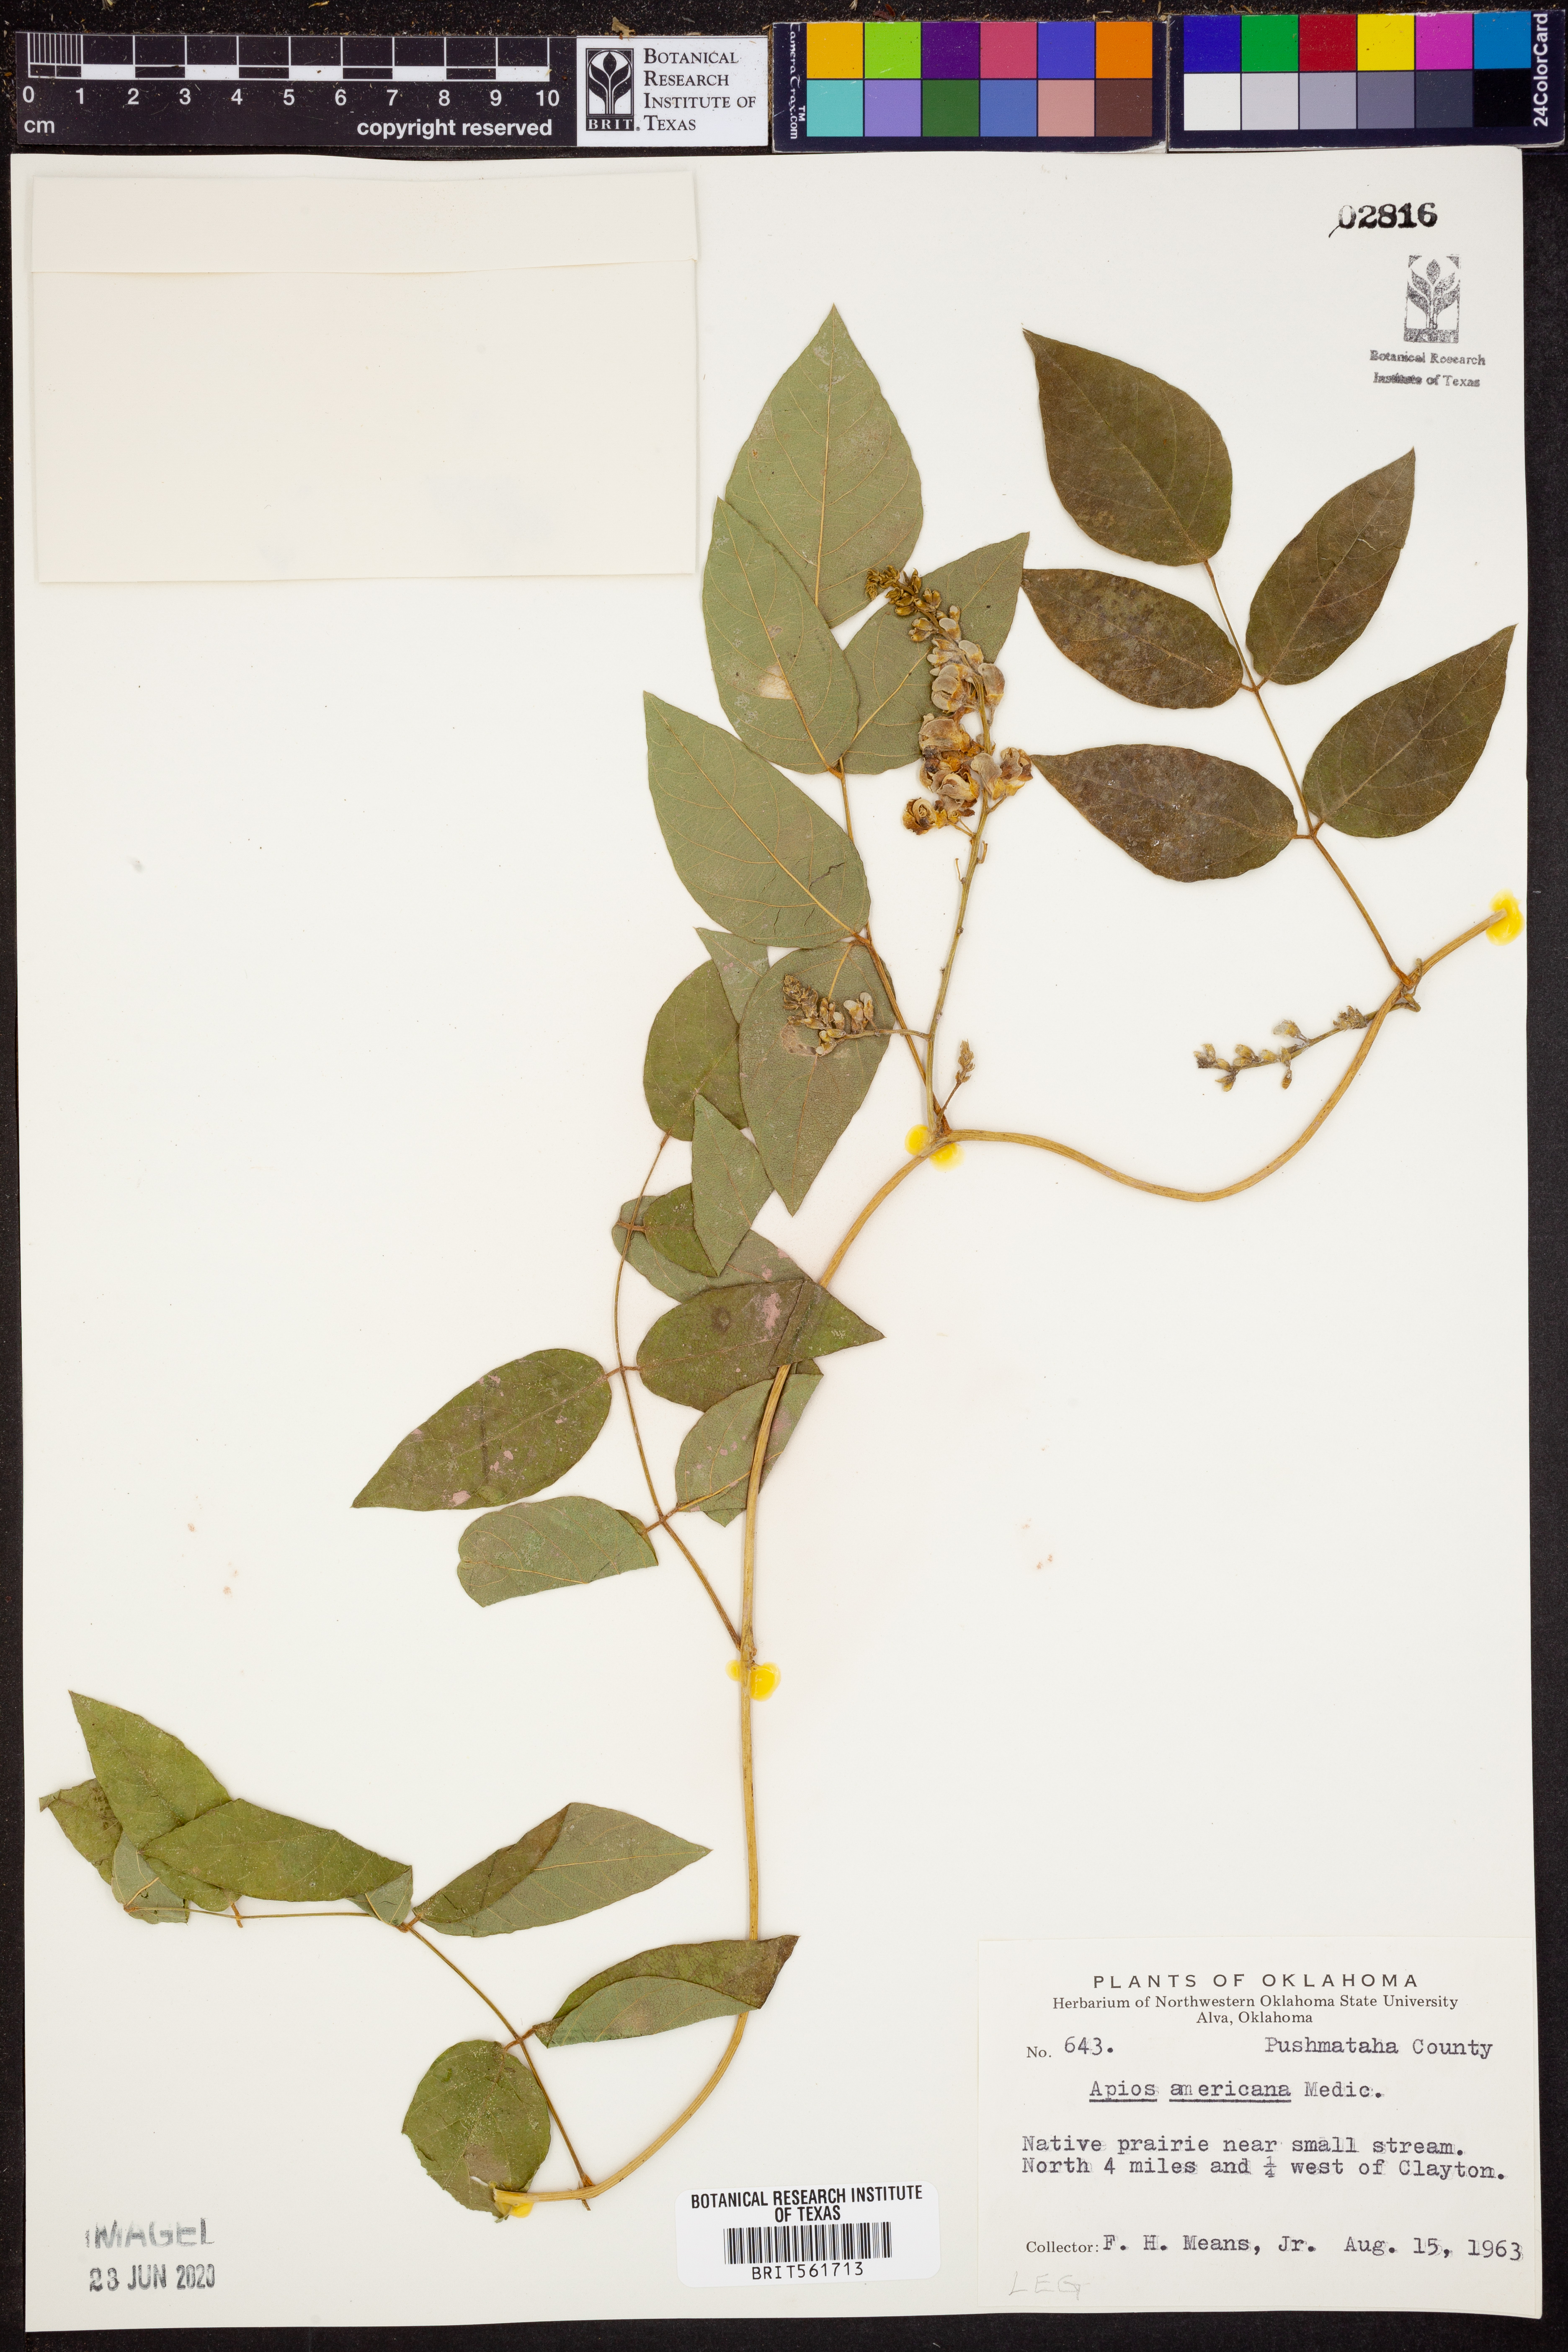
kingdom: Plantae
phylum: Tracheophyta
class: Magnoliopsida
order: Fabales
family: Fabaceae
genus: Apios
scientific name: Apios americana
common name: American potato-bean
